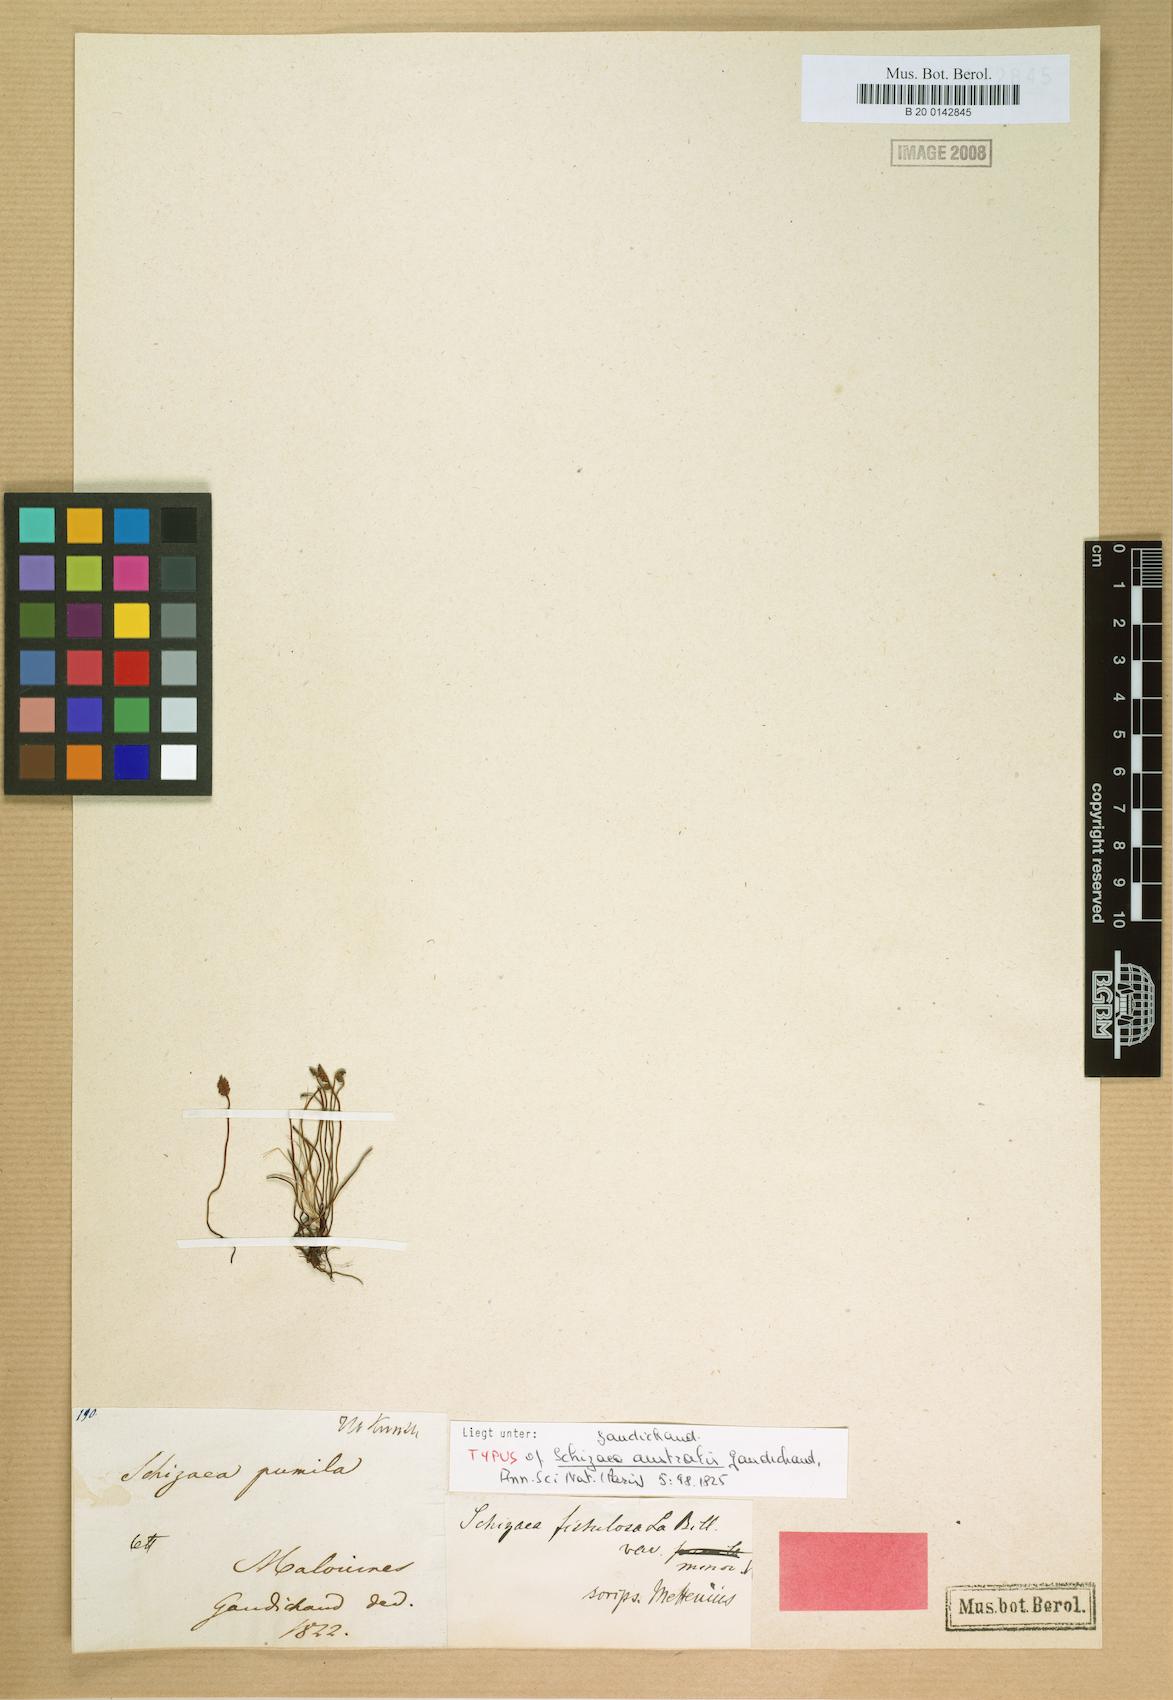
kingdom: Plantae
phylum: Tracheophyta
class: Polypodiopsida
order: Schizaeales
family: Schizaeaceae
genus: Microschizaea
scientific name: Microschizaea australis
